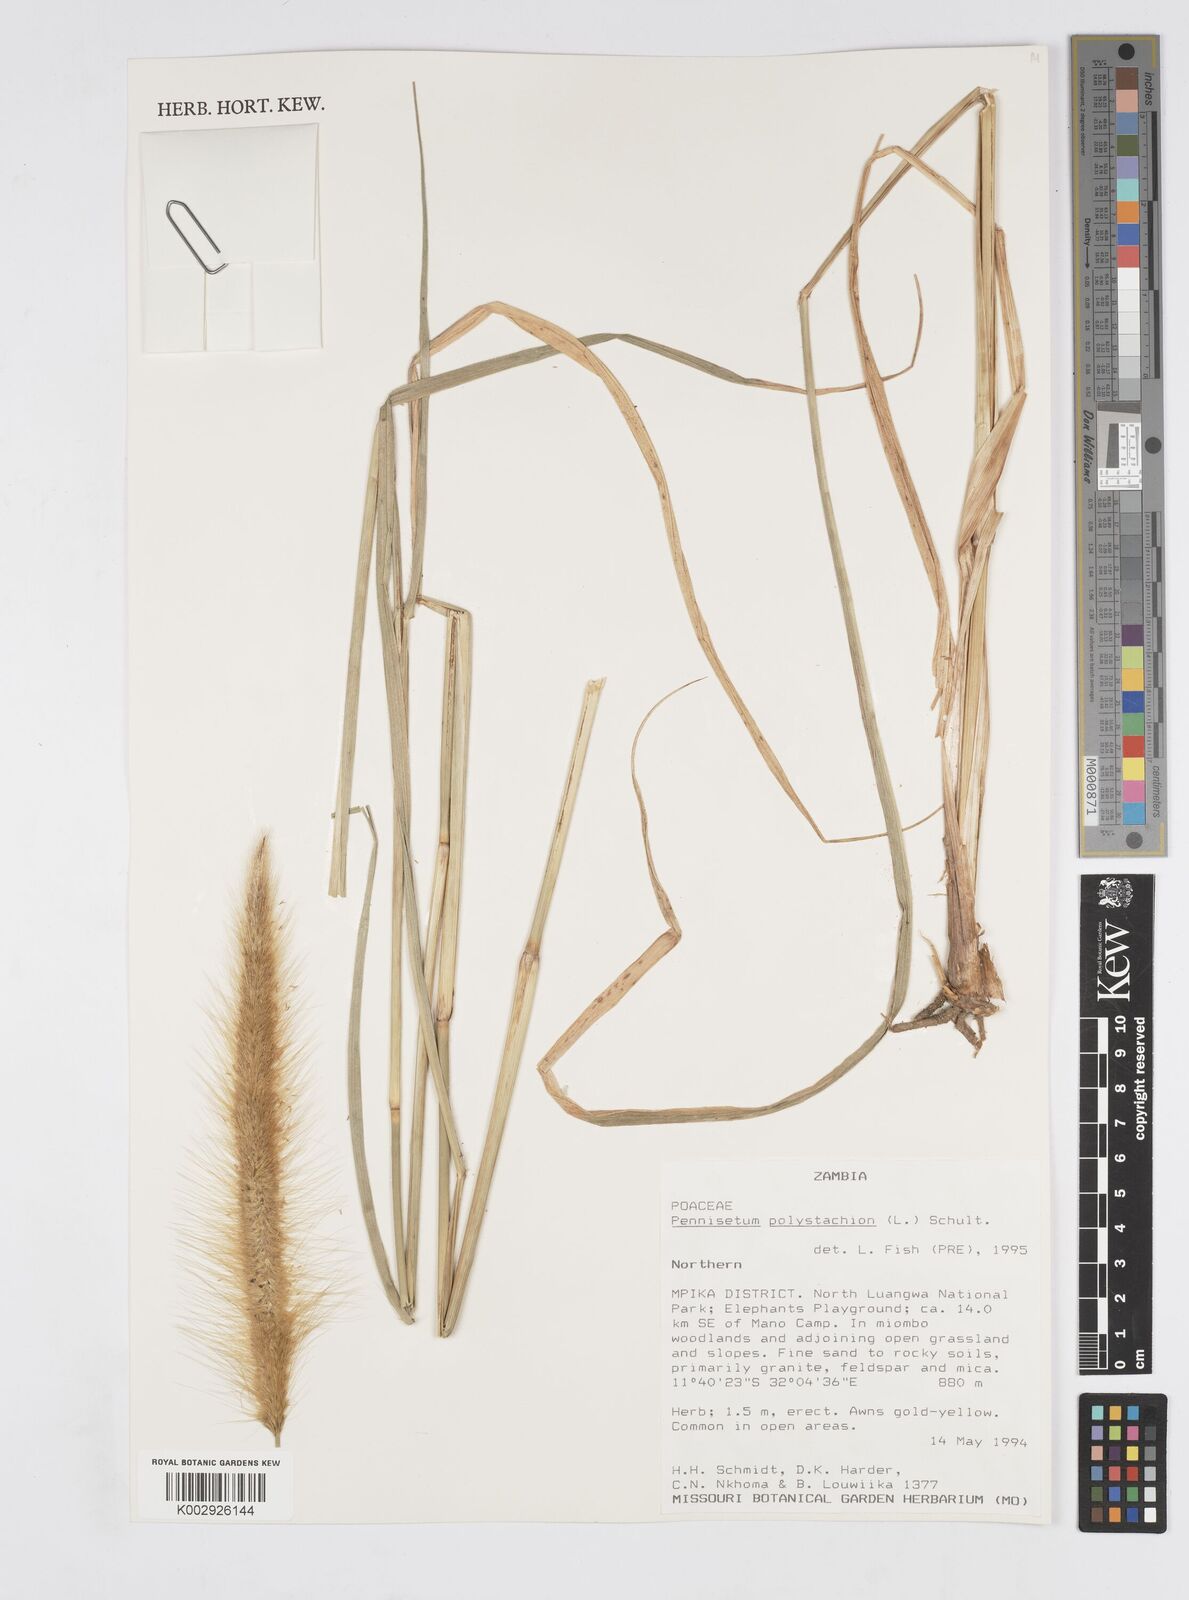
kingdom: Plantae
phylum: Tracheophyta
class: Liliopsida
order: Poales
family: Poaceae
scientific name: Poaceae
